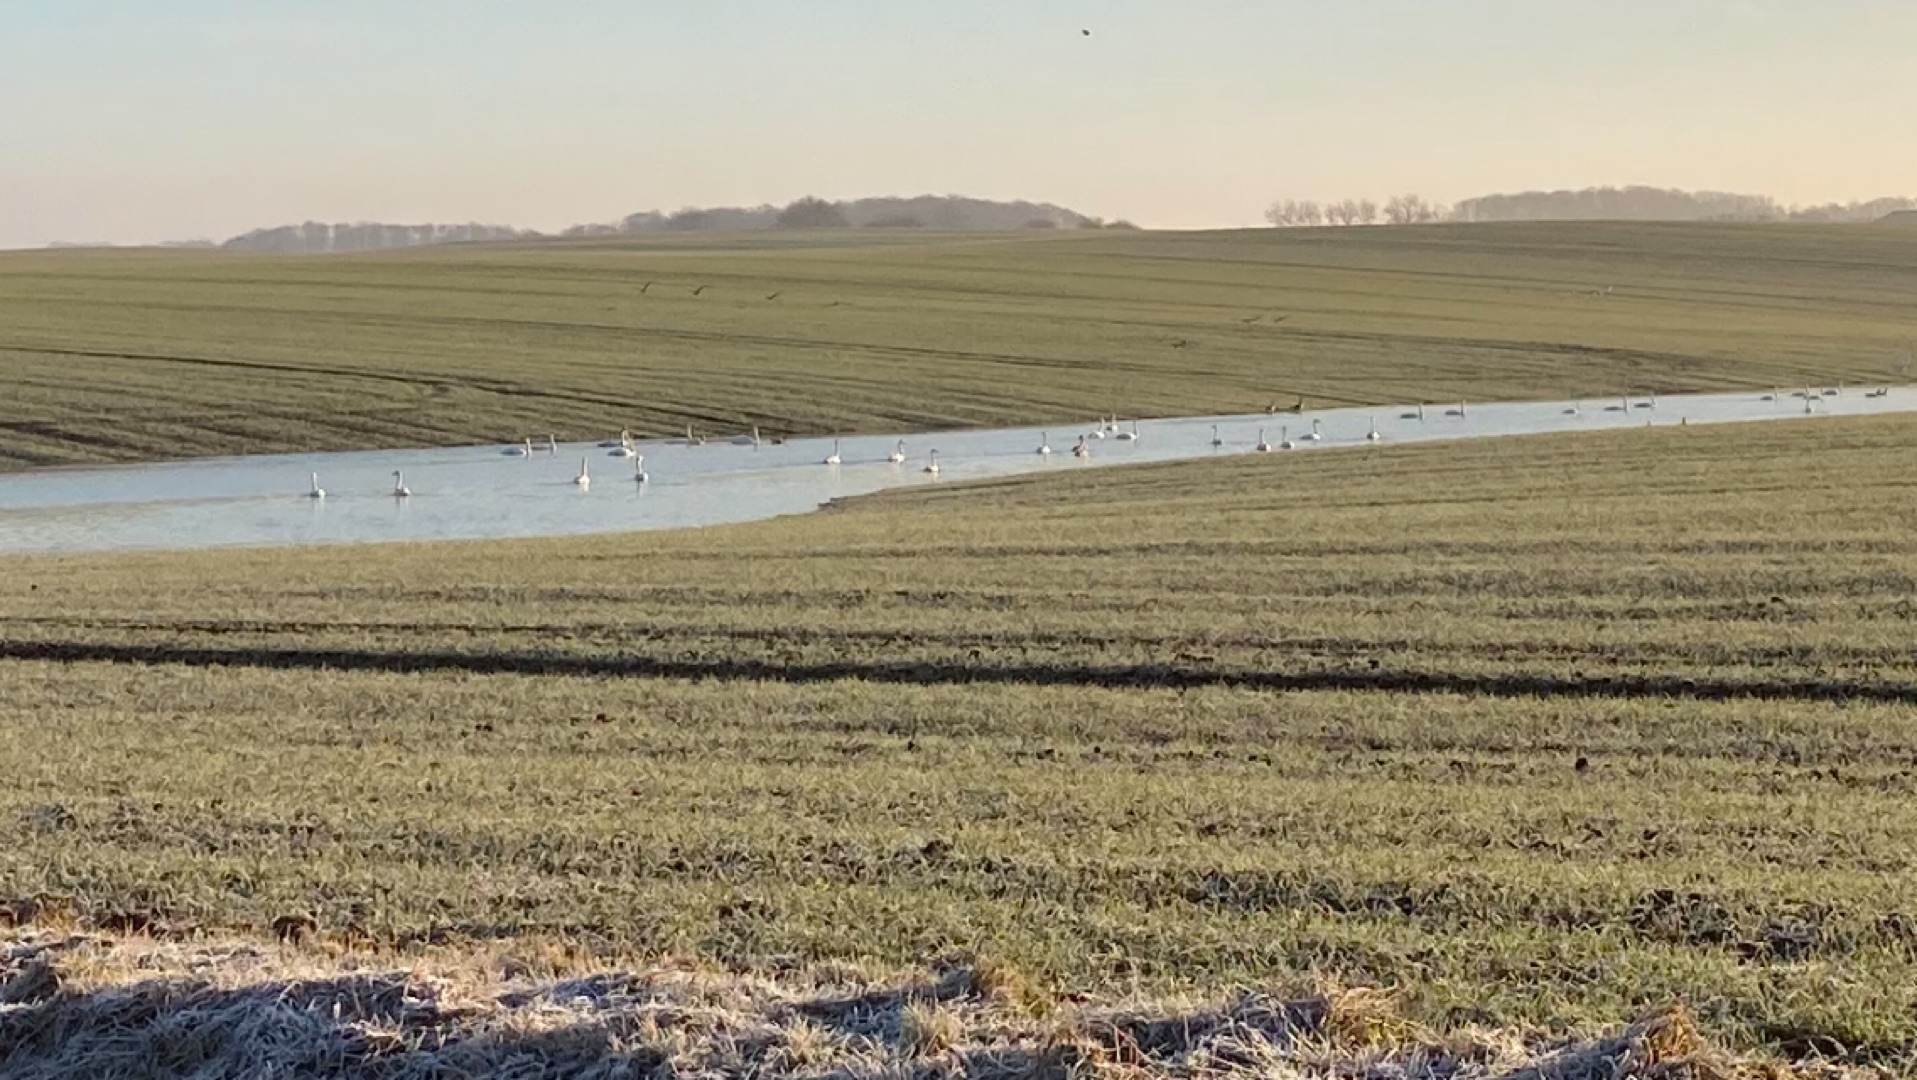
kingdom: Animalia
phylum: Chordata
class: Aves
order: Anseriformes
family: Anatidae
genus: Anser
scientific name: Anser anser
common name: Grågås
